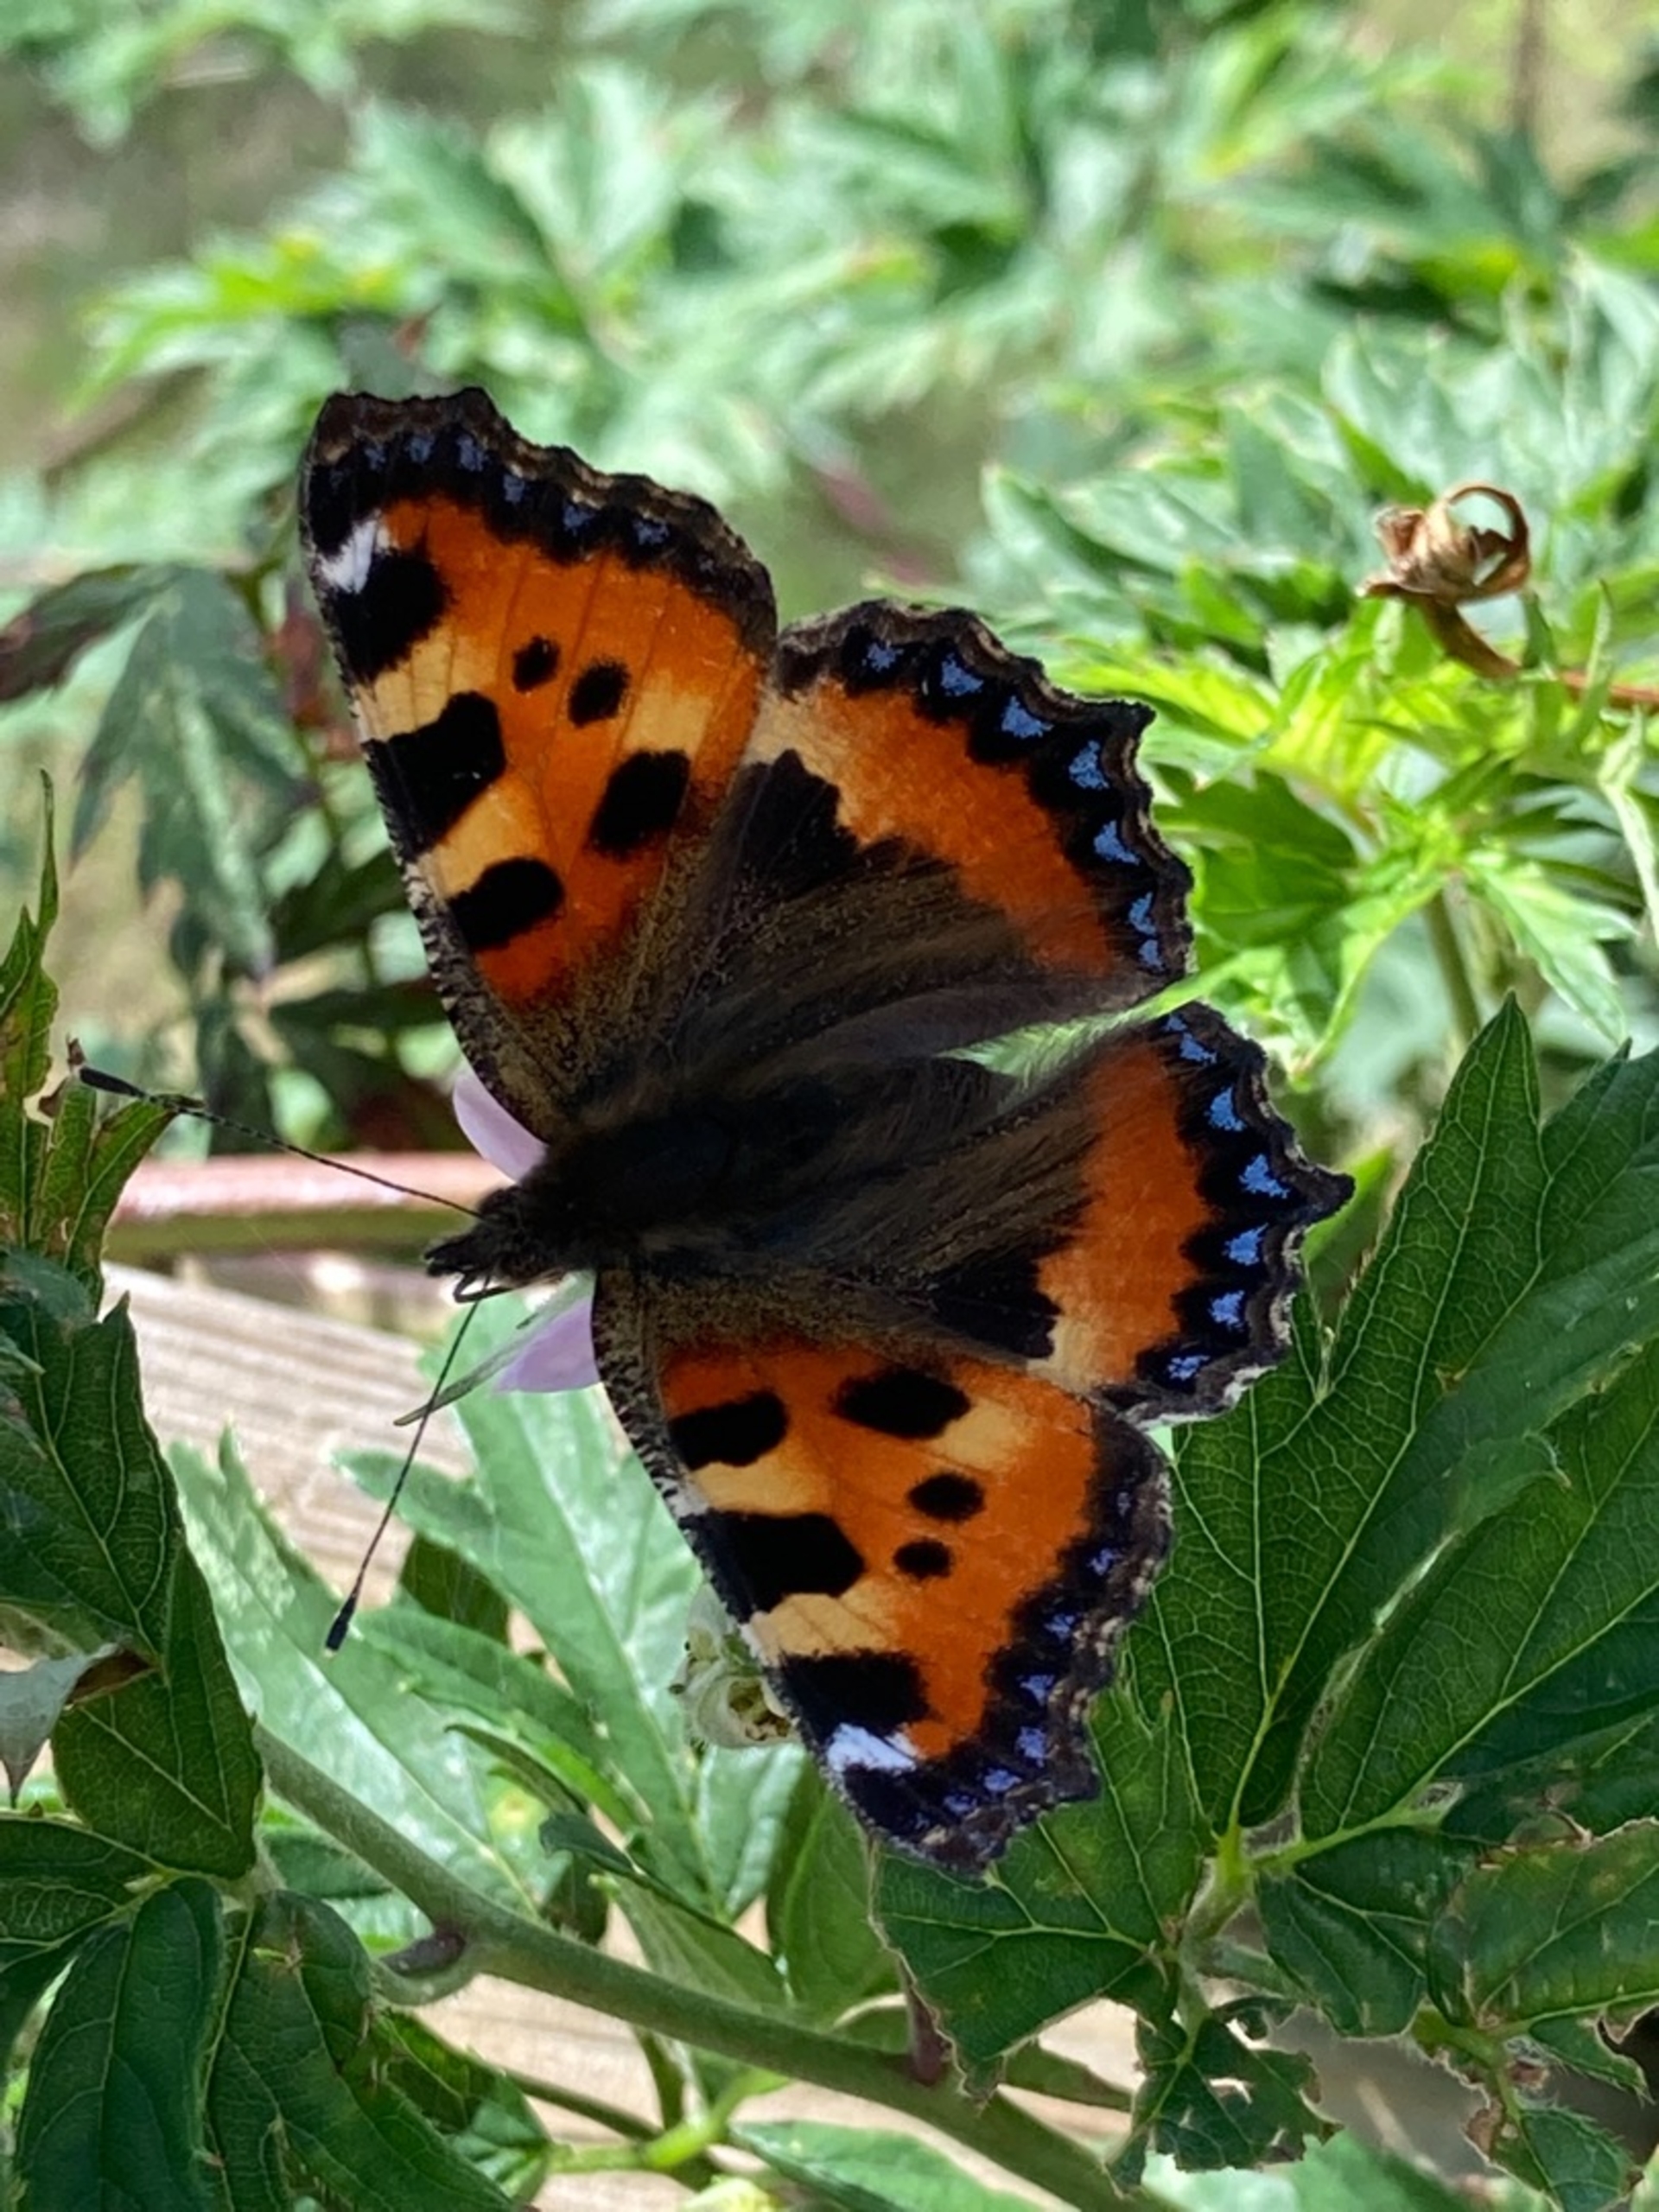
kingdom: Animalia
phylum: Arthropoda
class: Insecta
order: Lepidoptera
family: Nymphalidae
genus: Aglais
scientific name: Aglais urticae
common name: Nældens takvinge
